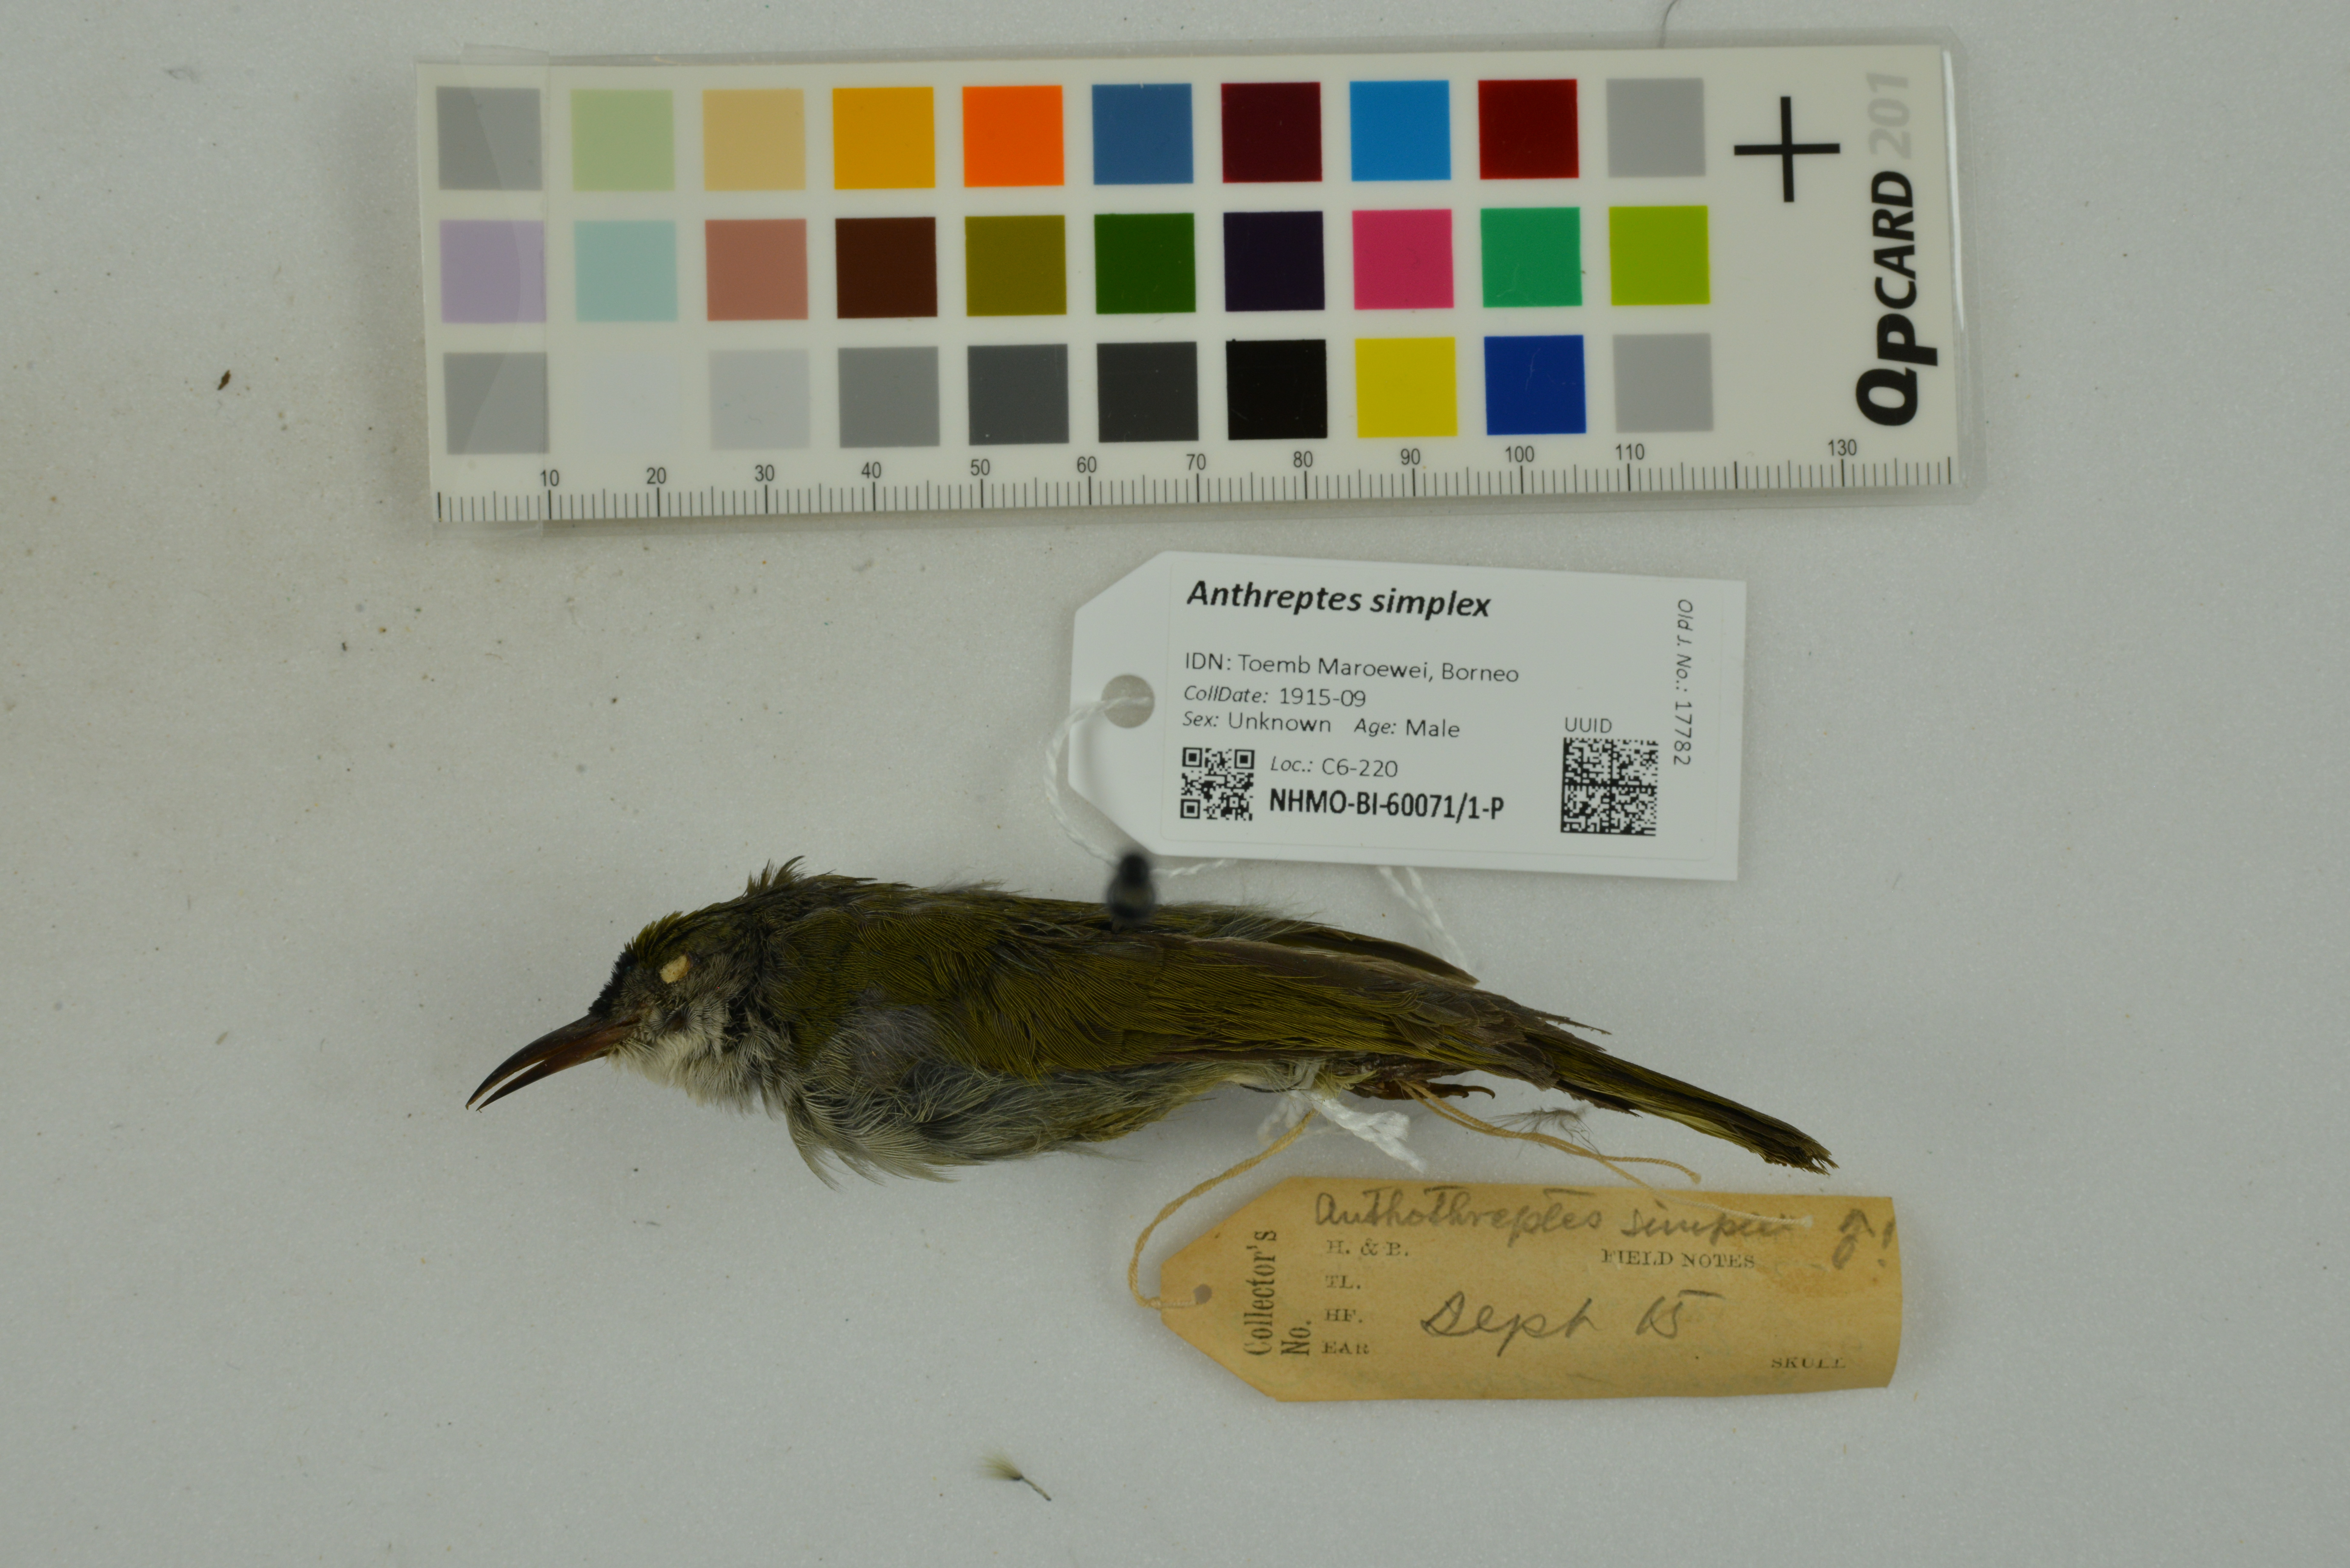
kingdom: Animalia
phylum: Chordata
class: Aves
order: Passeriformes
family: Nectariniidae
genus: Anthreptes
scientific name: Anthreptes simplex
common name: Plain sunbird
